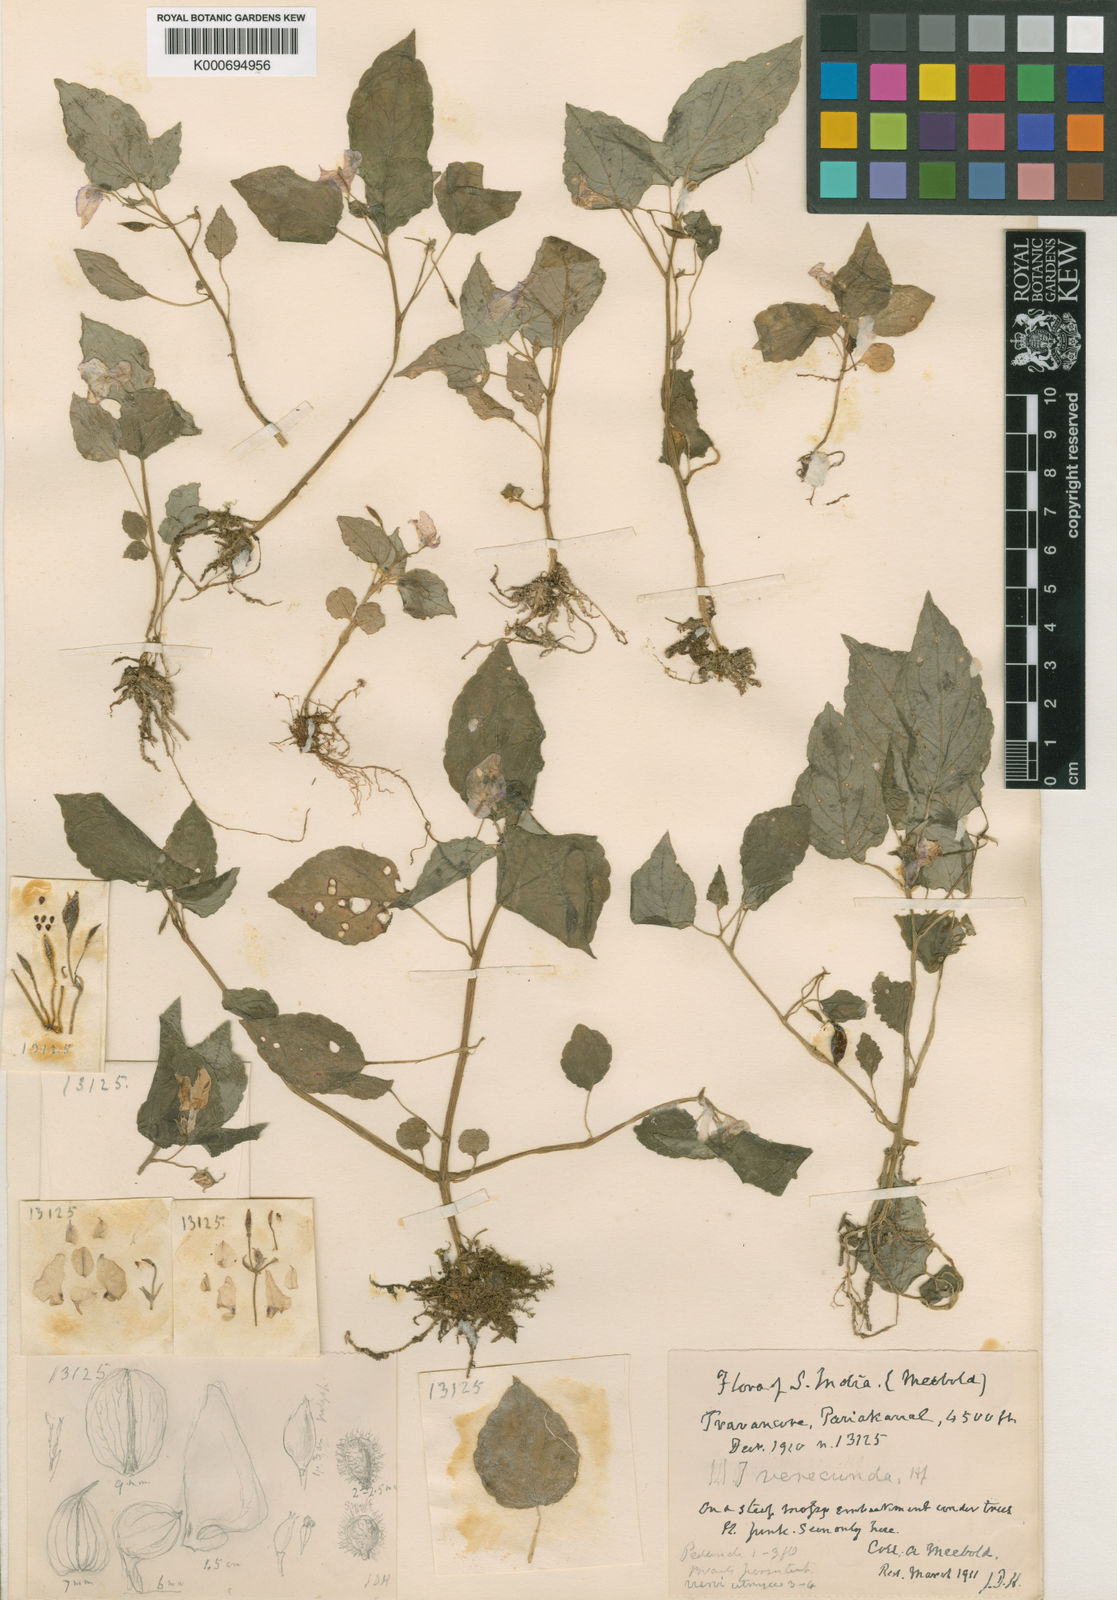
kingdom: Plantae
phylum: Tracheophyta
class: Magnoliopsida
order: Ericales
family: Balsaminaceae
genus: Impatiens
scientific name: Impatiens verecunda
